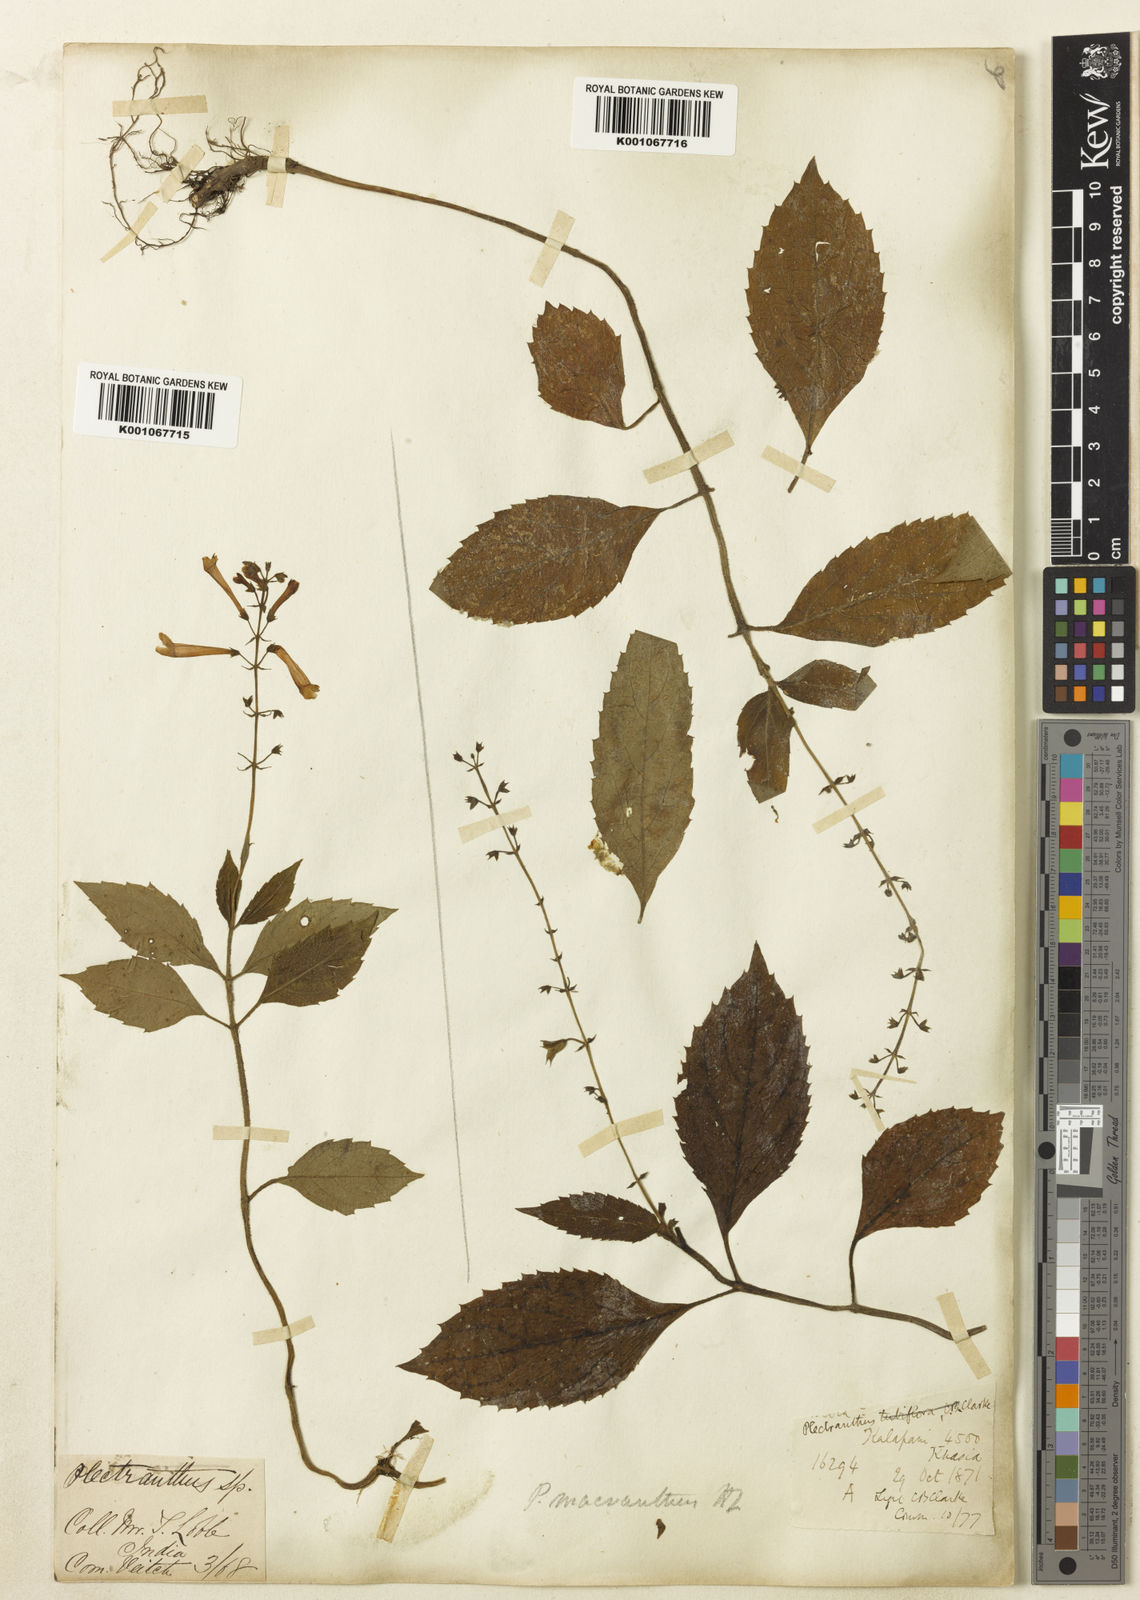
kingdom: Plantae
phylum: Tracheophyta
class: Magnoliopsida
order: Lamiales
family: Lamiaceae
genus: Siphocranion
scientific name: Siphocranion macranthum
